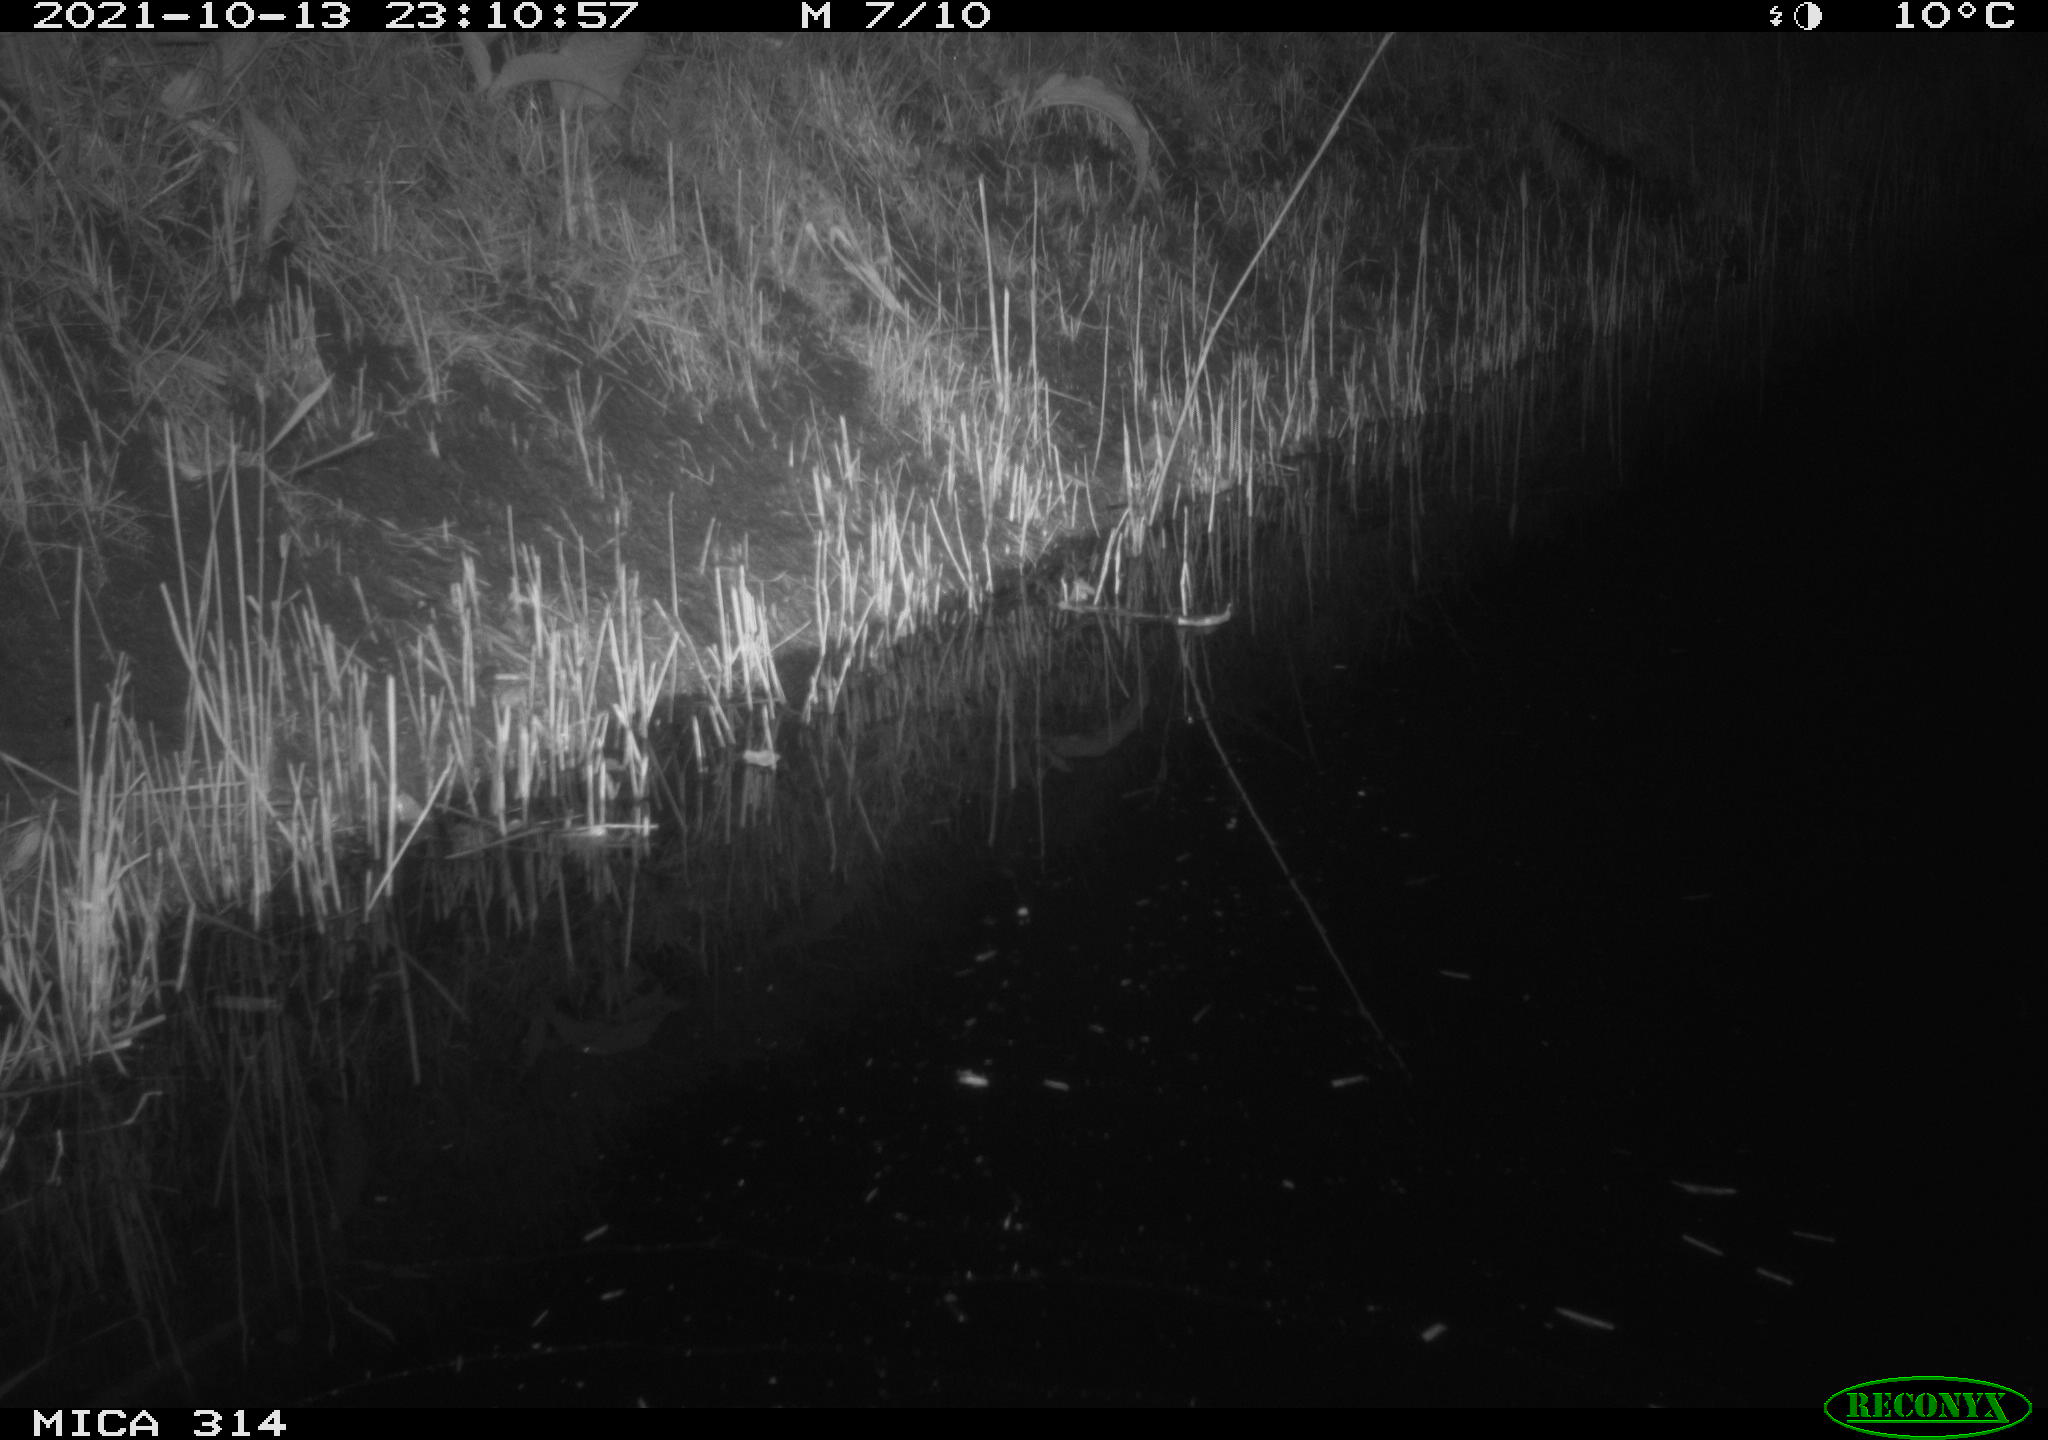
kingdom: Animalia
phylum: Chordata
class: Mammalia
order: Rodentia
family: Muridae
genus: Rattus
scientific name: Rattus norvegicus
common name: Brown rat
